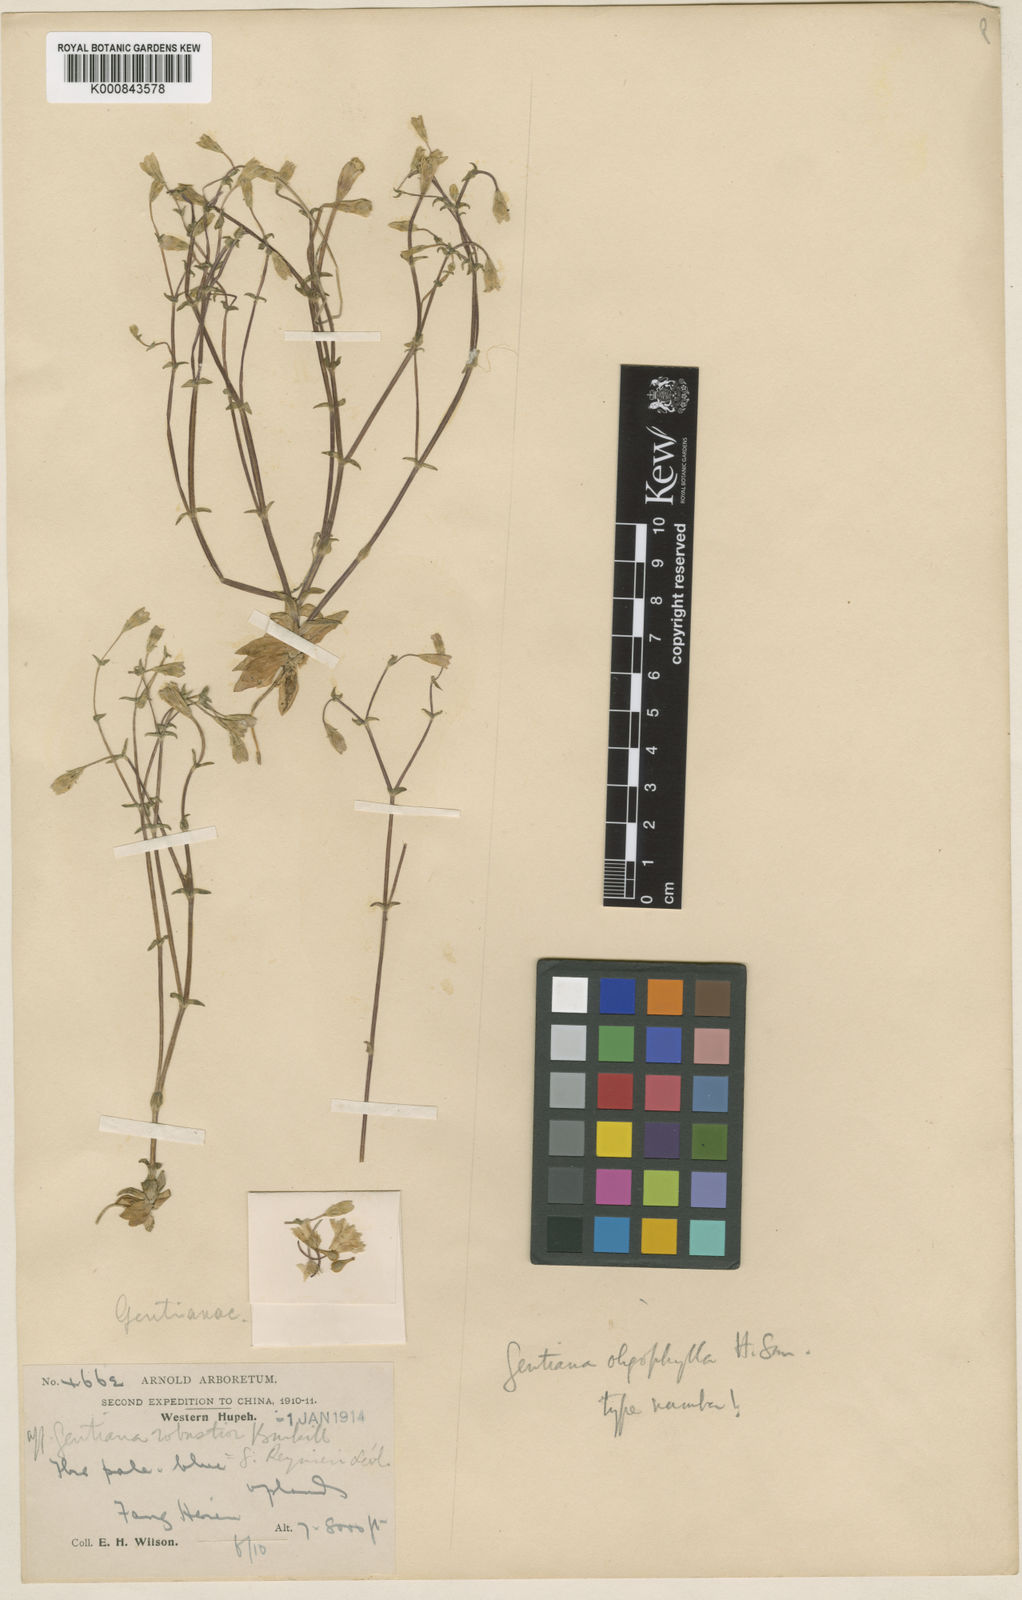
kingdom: Plantae
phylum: Tracheophyta
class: Magnoliopsida
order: Gentianales
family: Gentianaceae
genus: Gentiana
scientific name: Gentiana oligophylla
